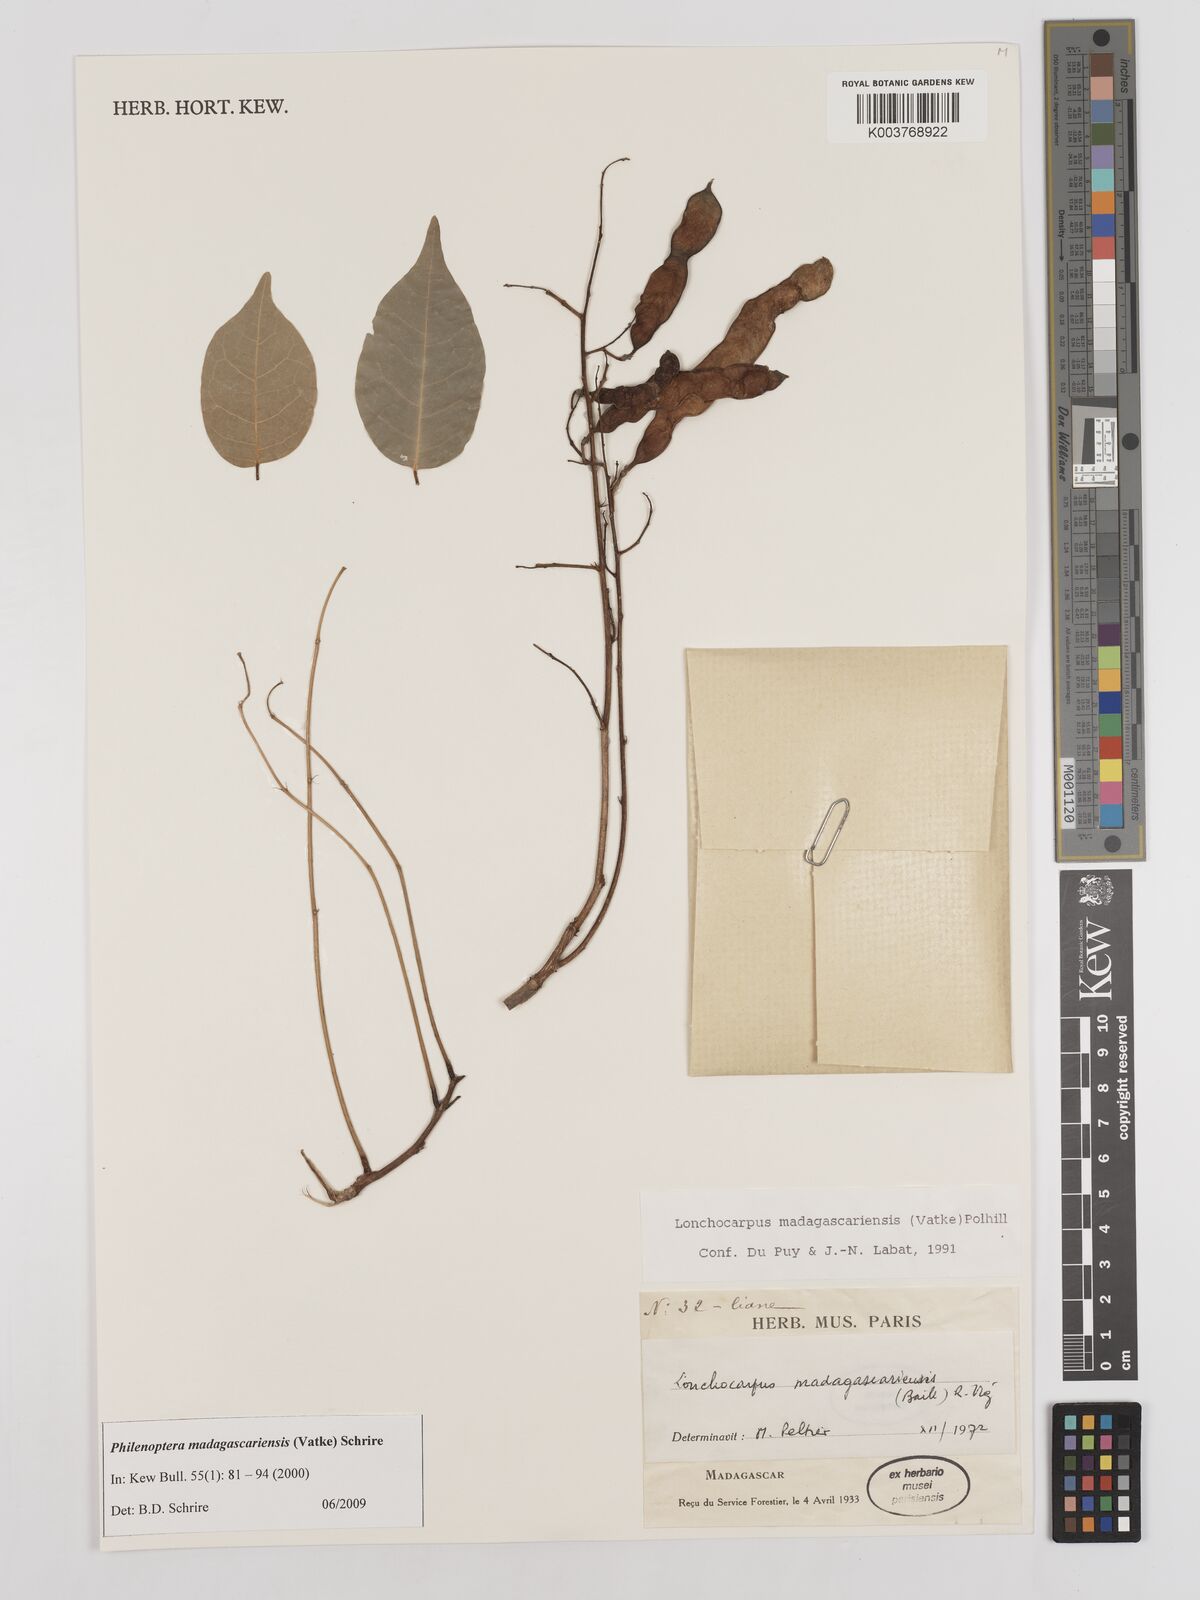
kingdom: Plantae
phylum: Tracheophyta
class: Magnoliopsida
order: Fabales
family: Fabaceae
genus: Lonchocarpus
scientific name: Lonchocarpus madagascariensis
